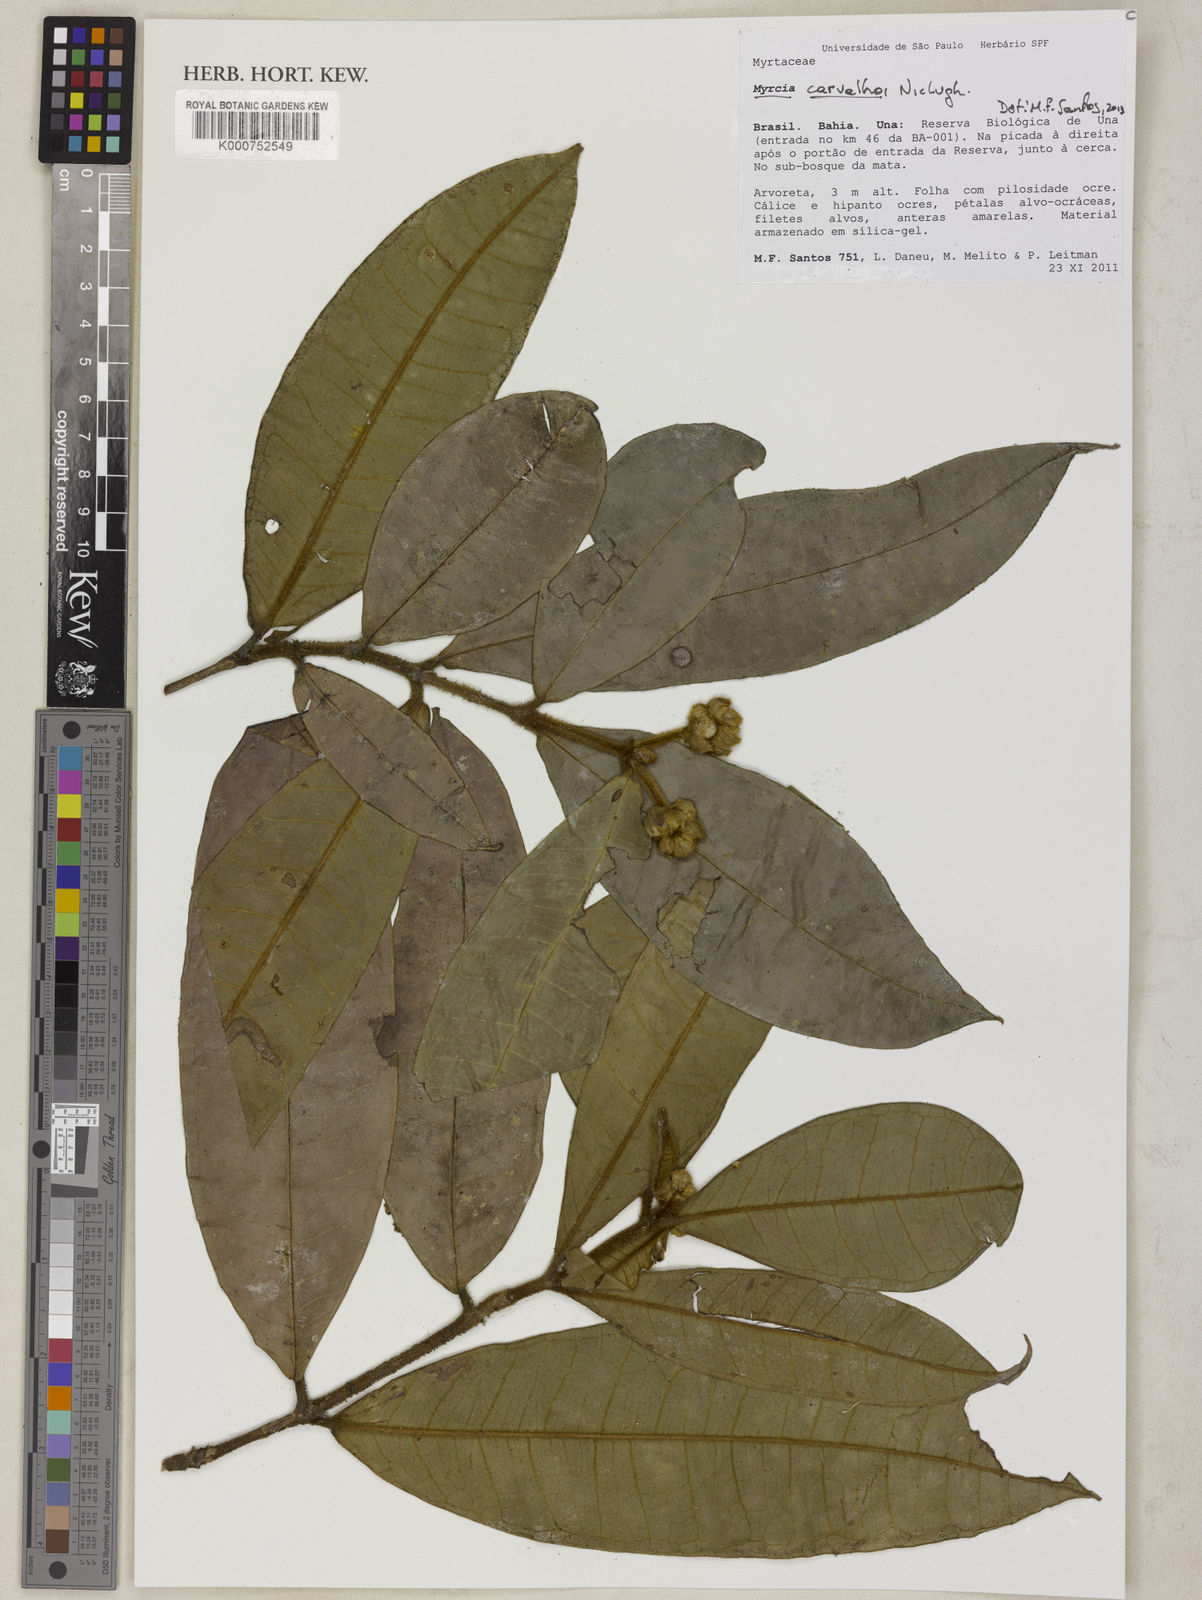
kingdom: Plantae
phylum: Tracheophyta
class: Magnoliopsida
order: Myrtales
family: Myrtaceae
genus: Myrcia
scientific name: Myrcia carvalhoi
